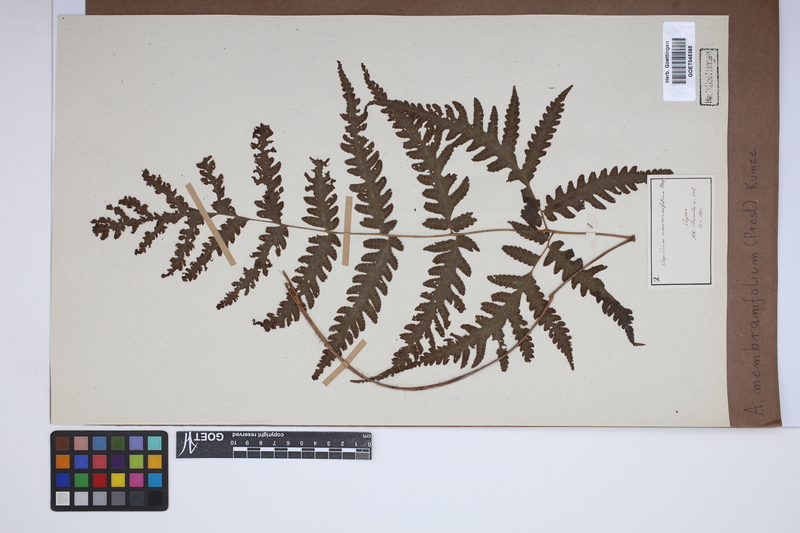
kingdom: Plantae
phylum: Tracheophyta
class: Polypodiopsida
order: Polypodiales
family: Tectariaceae
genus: Tectaria
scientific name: Tectaria dissecta
